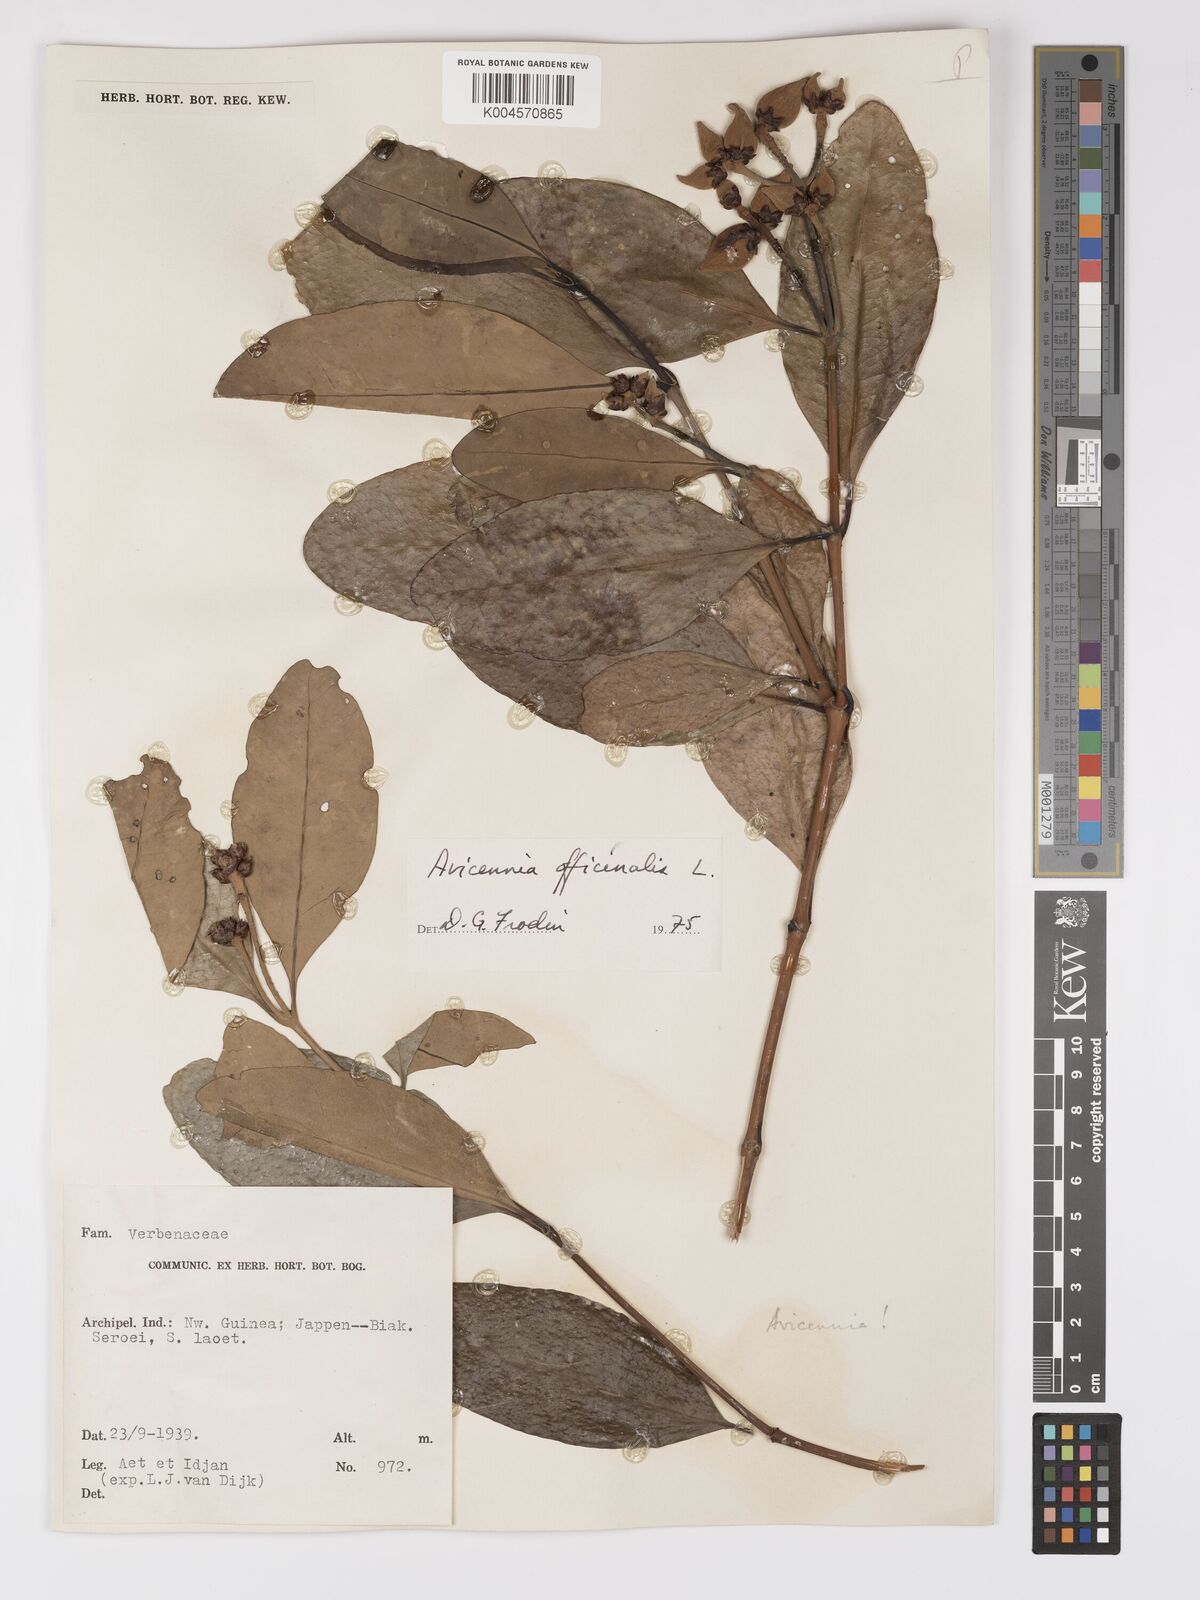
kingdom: Plantae
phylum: Tracheophyta
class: Magnoliopsida
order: Lamiales
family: Acanthaceae
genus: Avicennia
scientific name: Avicennia officinalis
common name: Baen
